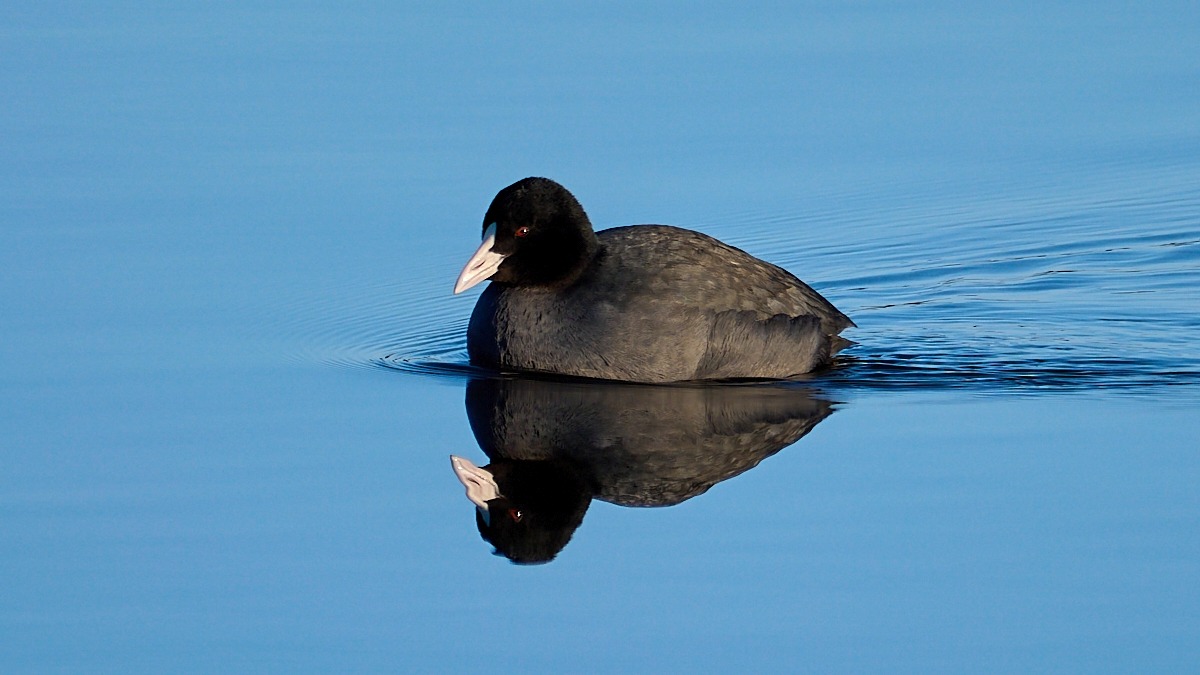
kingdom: Animalia
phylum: Chordata
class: Aves
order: Gruiformes
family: Rallidae
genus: Fulica
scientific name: Fulica atra
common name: Blishøne
